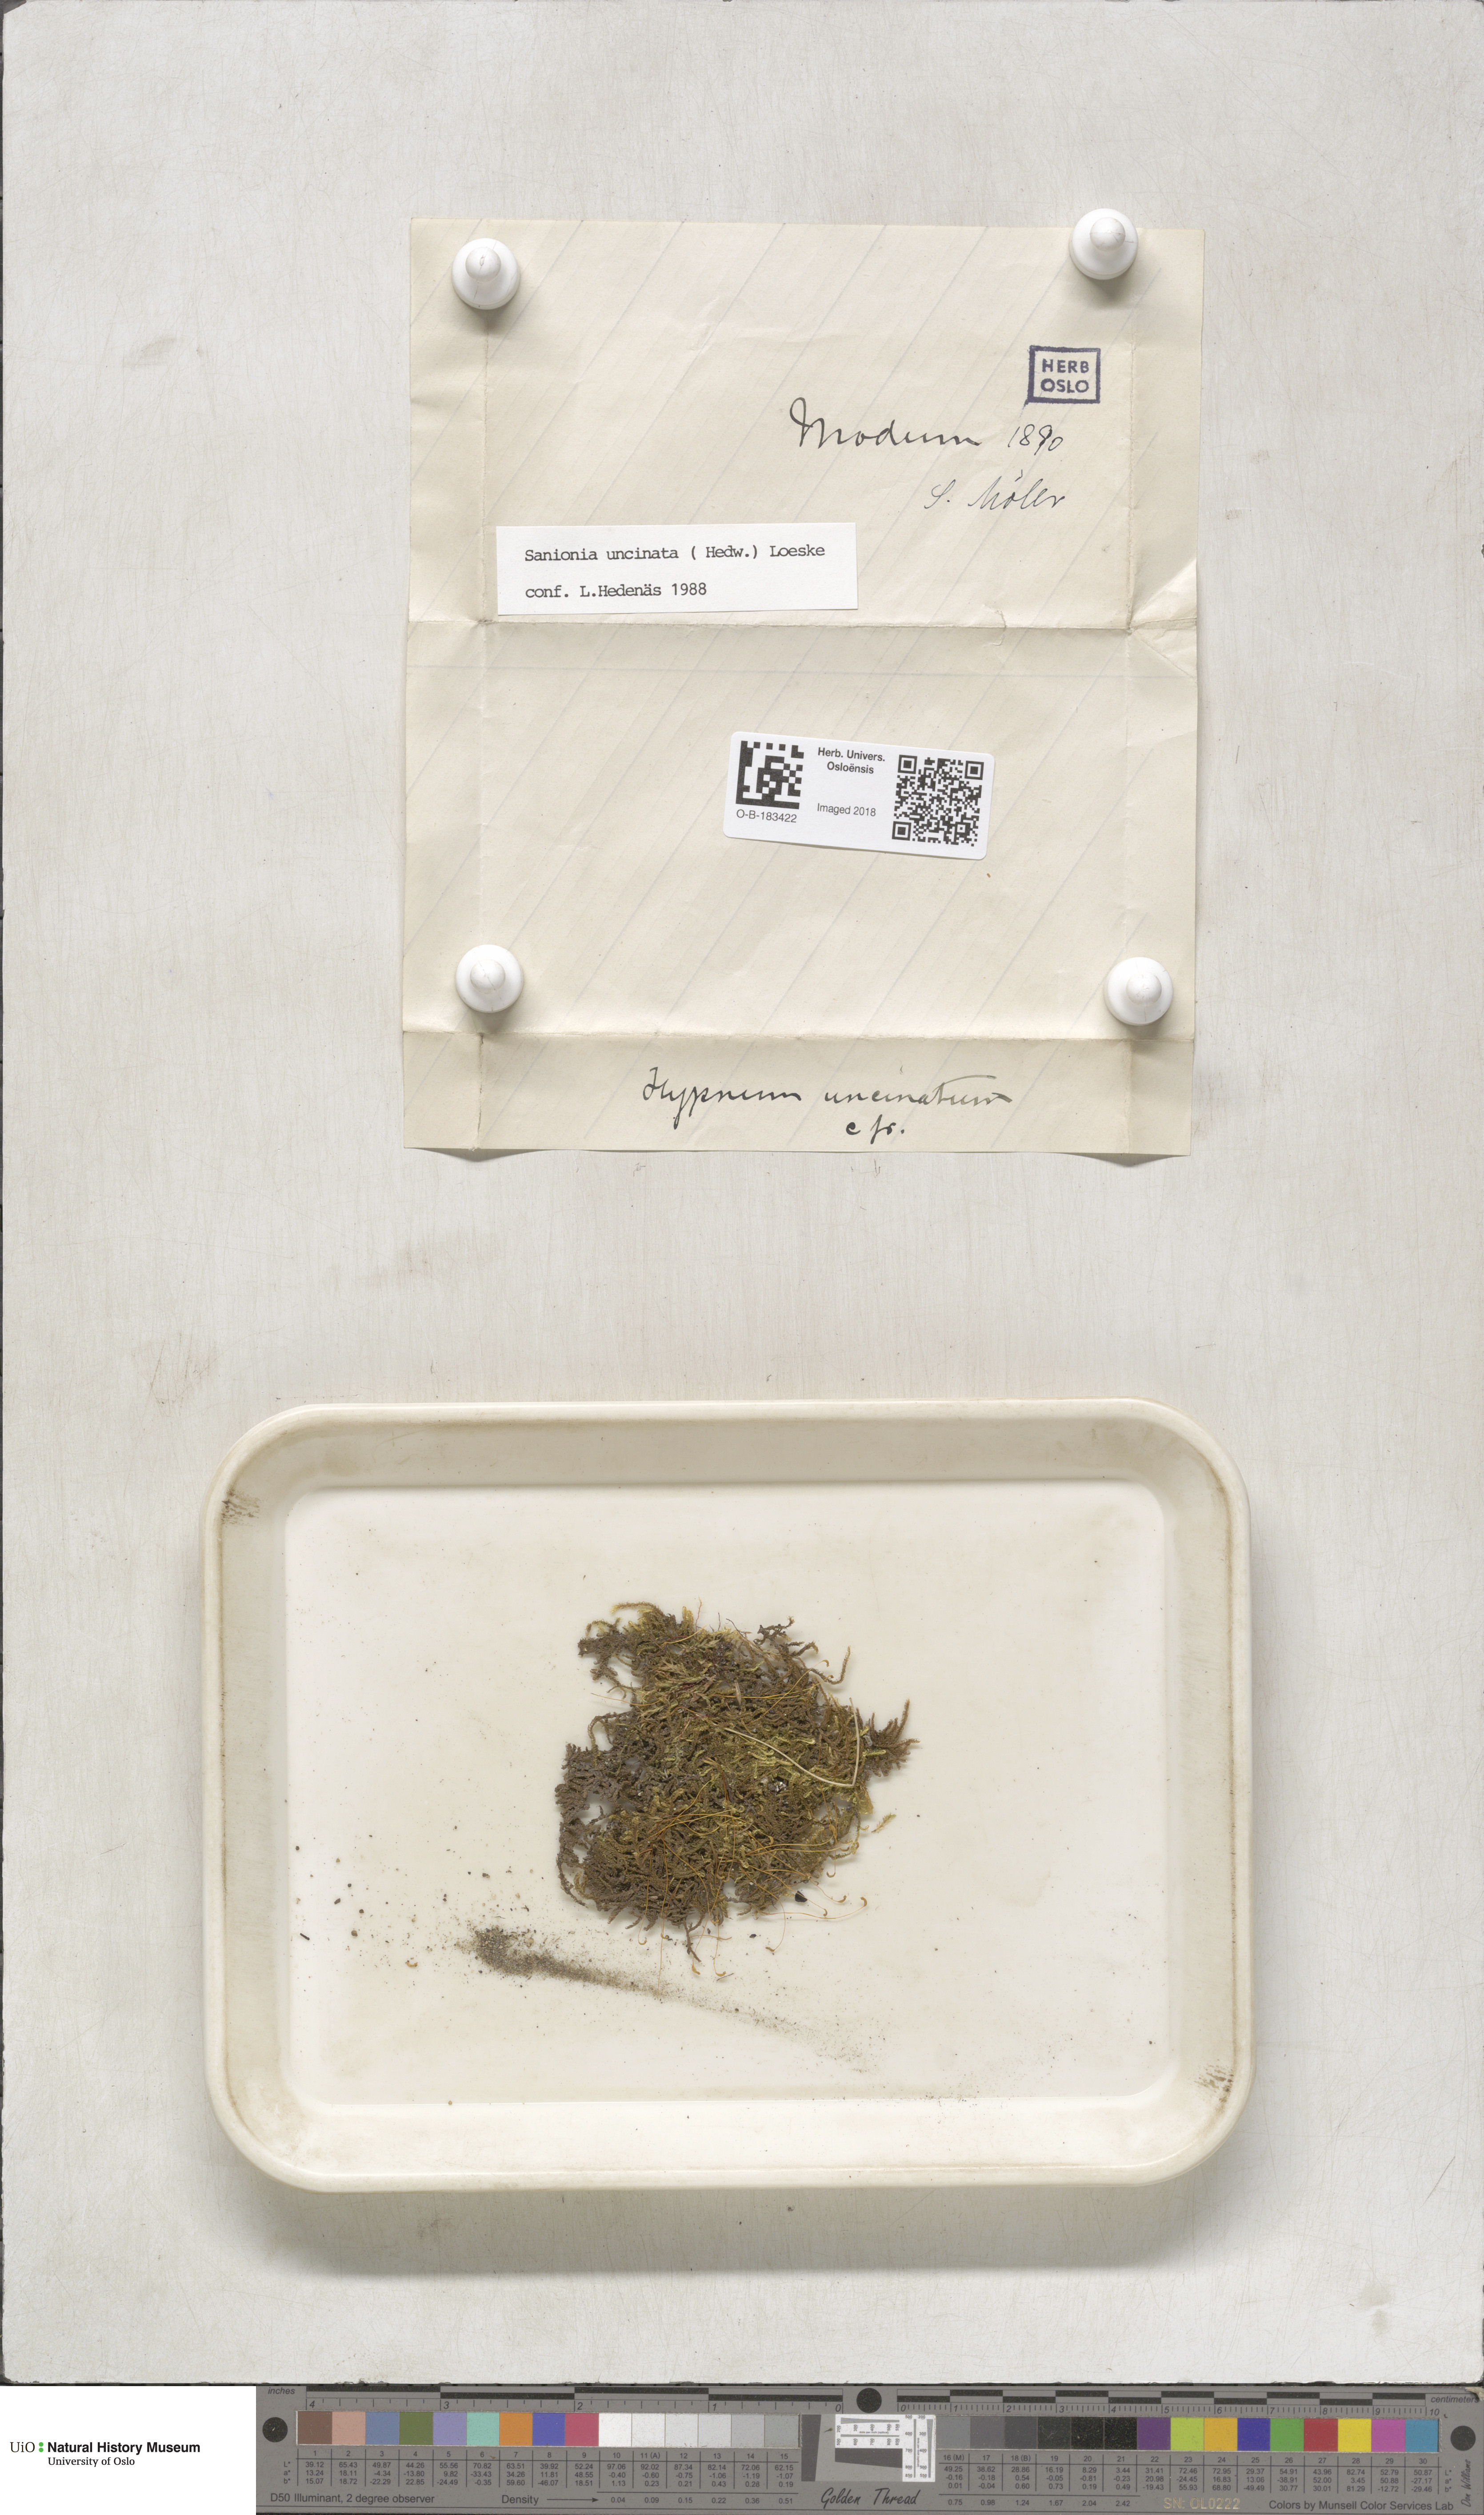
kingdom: Plantae
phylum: Bryophyta
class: Bryopsida
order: Hypnales
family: Scorpidiaceae
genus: Sanionia
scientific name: Sanionia uncinata
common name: Sickle moss
